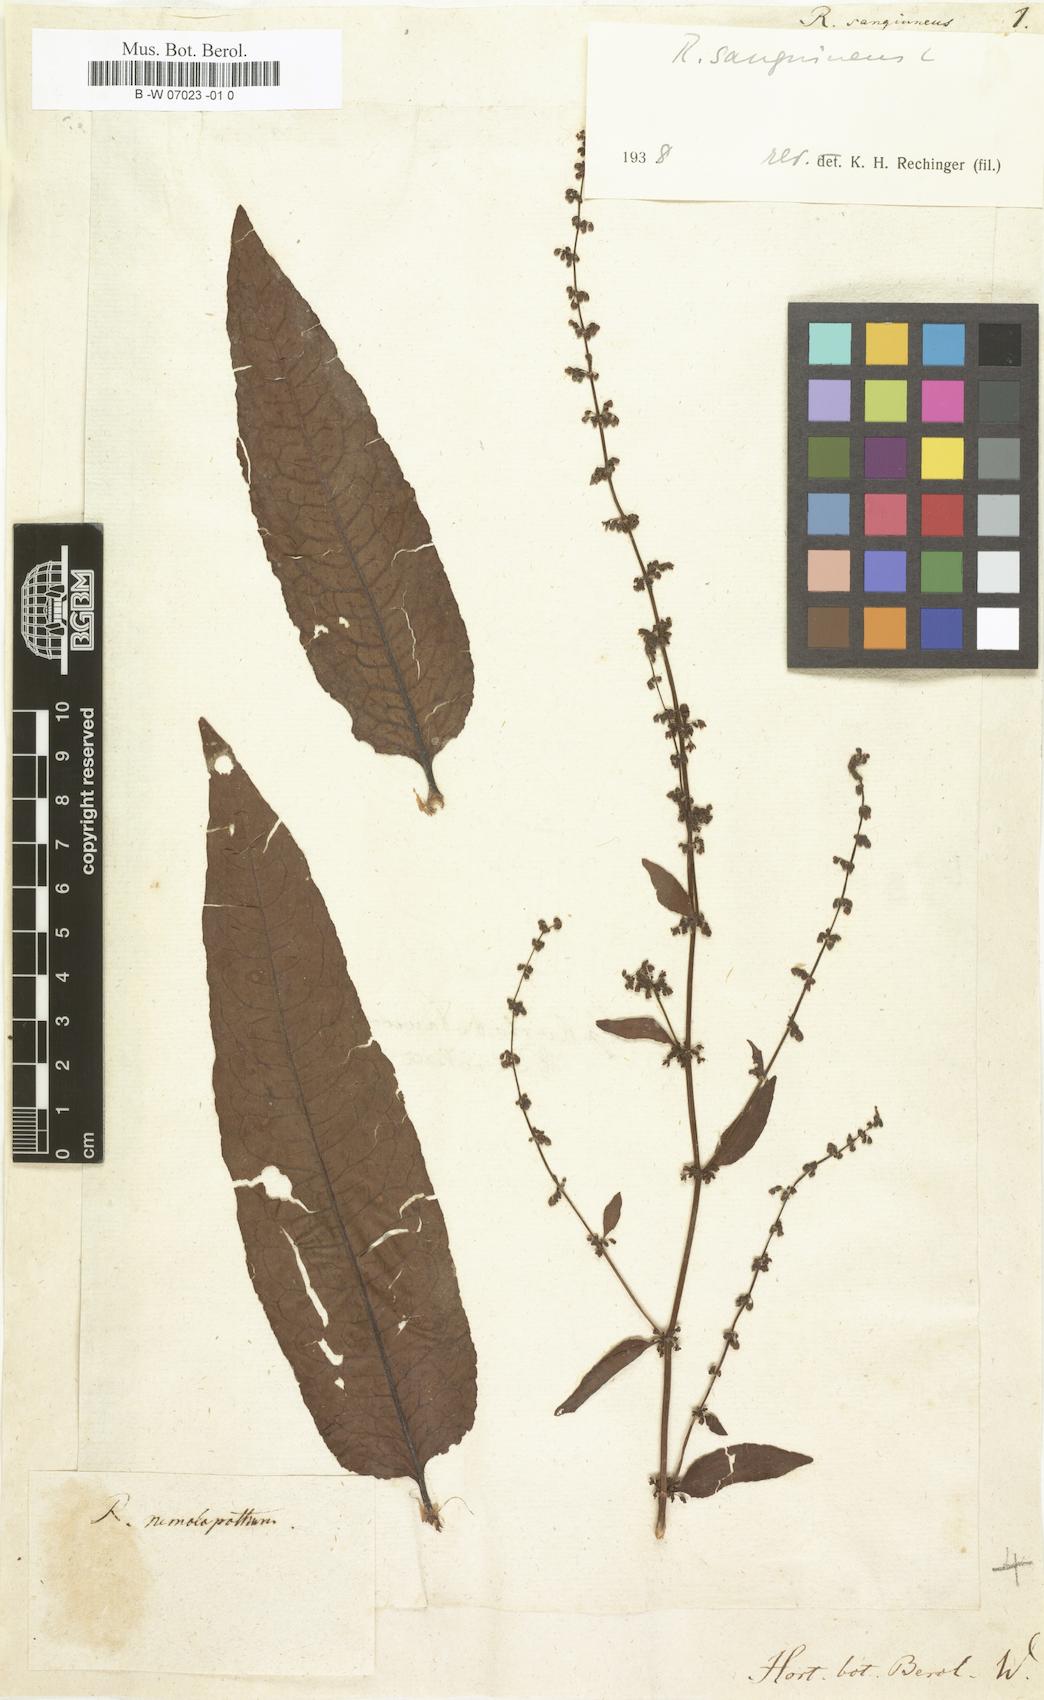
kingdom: Plantae
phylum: Tracheophyta
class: Magnoliopsida
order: Caryophyllales
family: Polygonaceae
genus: Rumex
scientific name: Rumex sanguineus
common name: Wood dock
